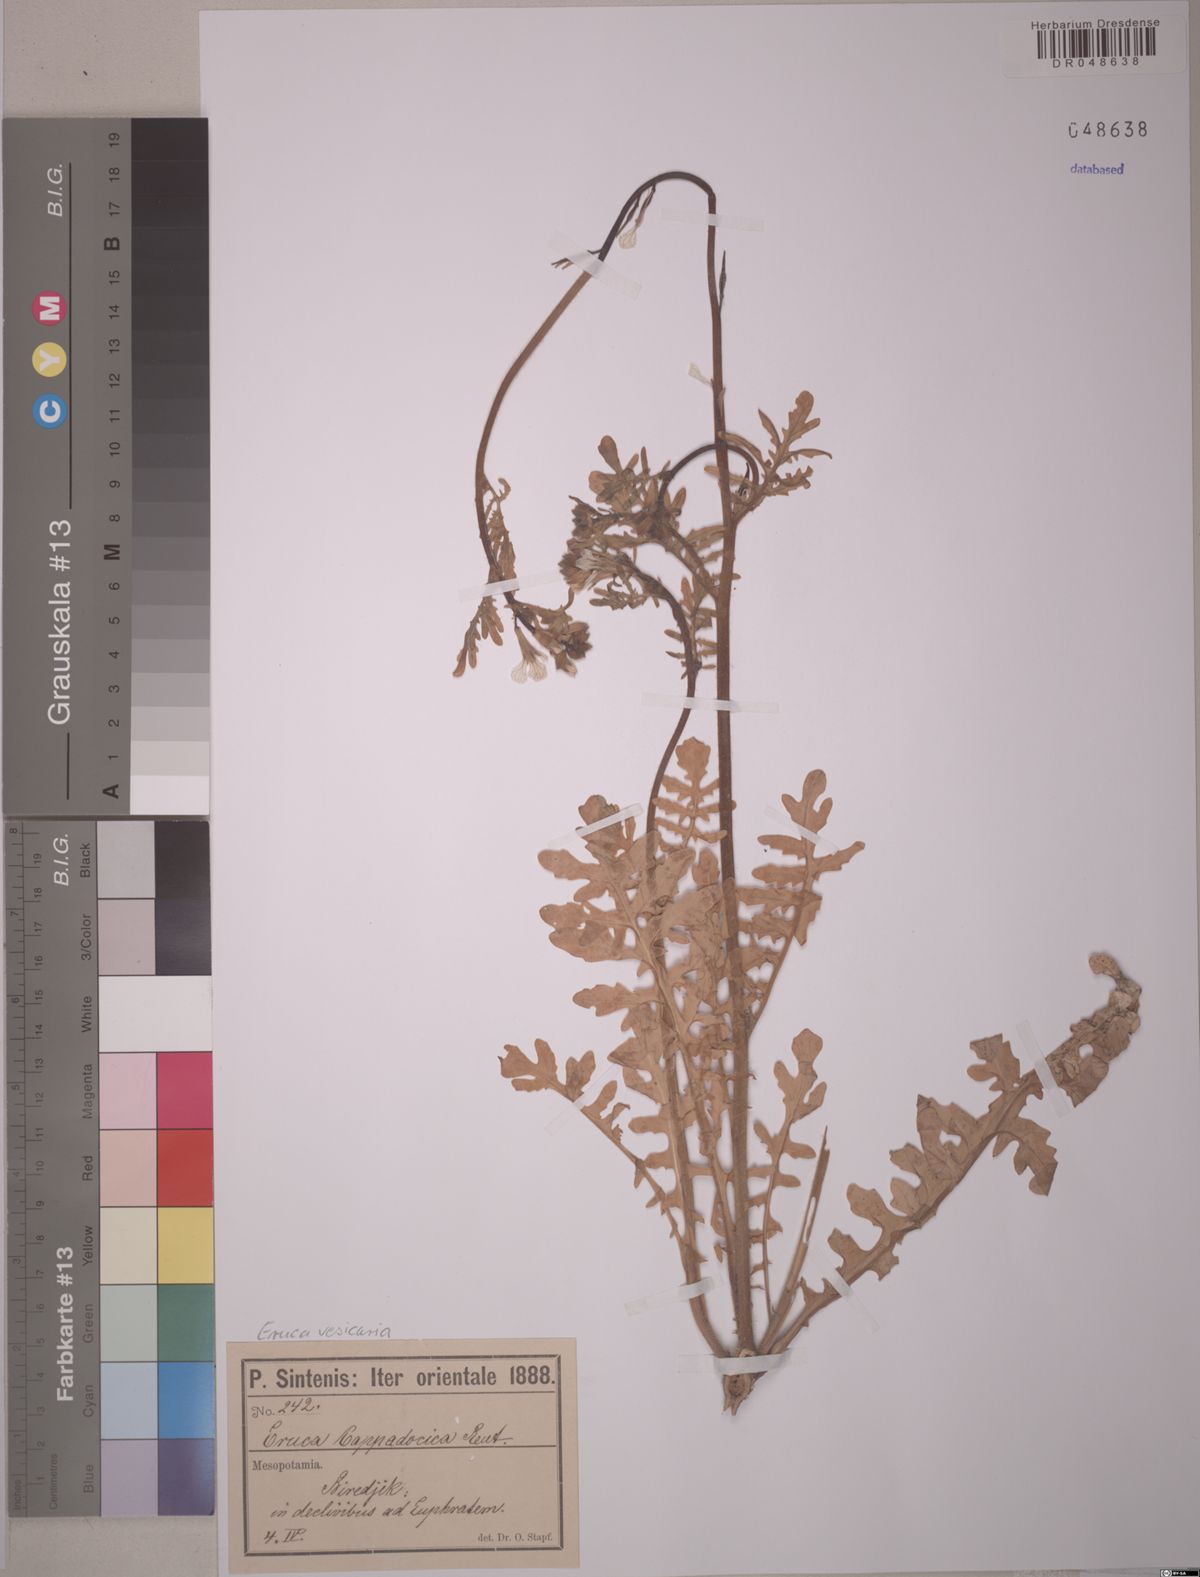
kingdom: Plantae
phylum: Tracheophyta
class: Magnoliopsida
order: Brassicales
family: Brassicaceae
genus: Eruca
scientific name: Eruca vesicaria
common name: Garden rocket
